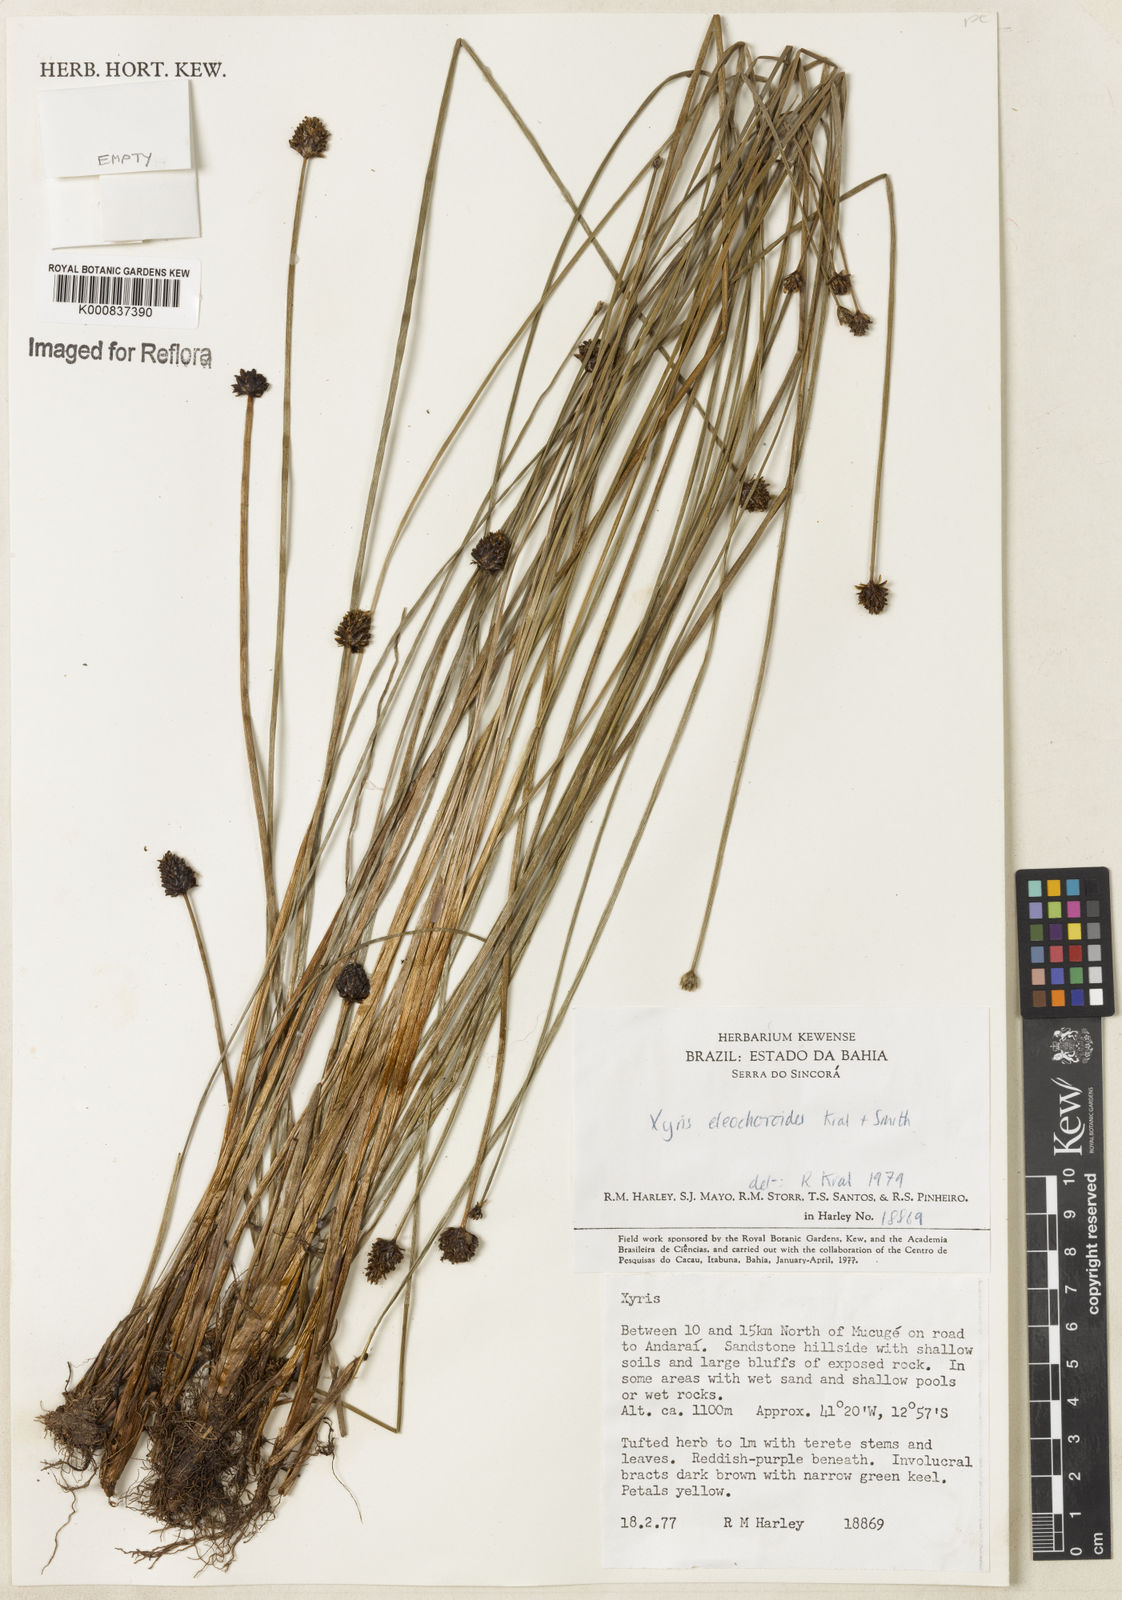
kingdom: Plantae
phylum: Tracheophyta
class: Liliopsida
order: Poales
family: Xyridaceae
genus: Xyris
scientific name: Xyris eleocharoides
